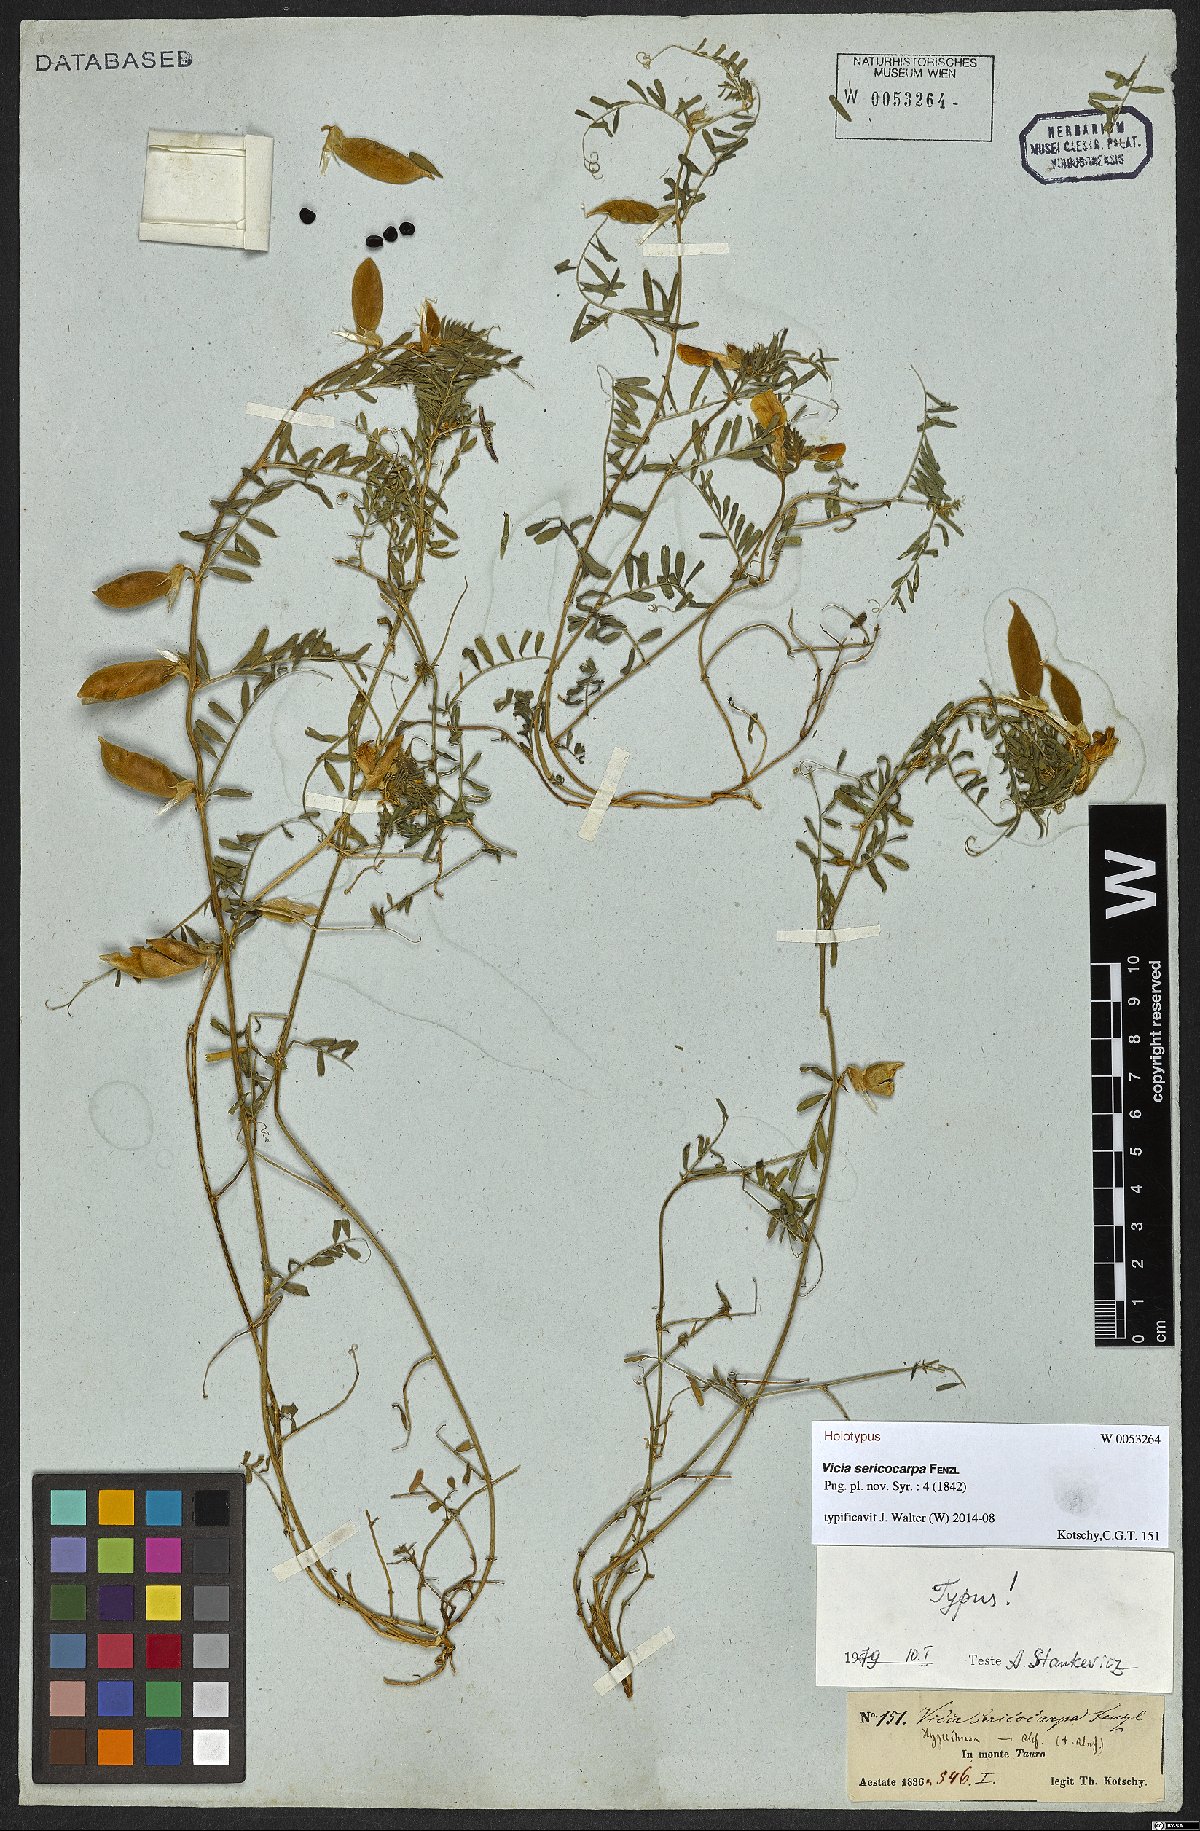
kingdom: Plantae
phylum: Tracheophyta
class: Magnoliopsida
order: Fabales
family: Fabaceae
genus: Vicia
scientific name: Vicia sericocarpa
